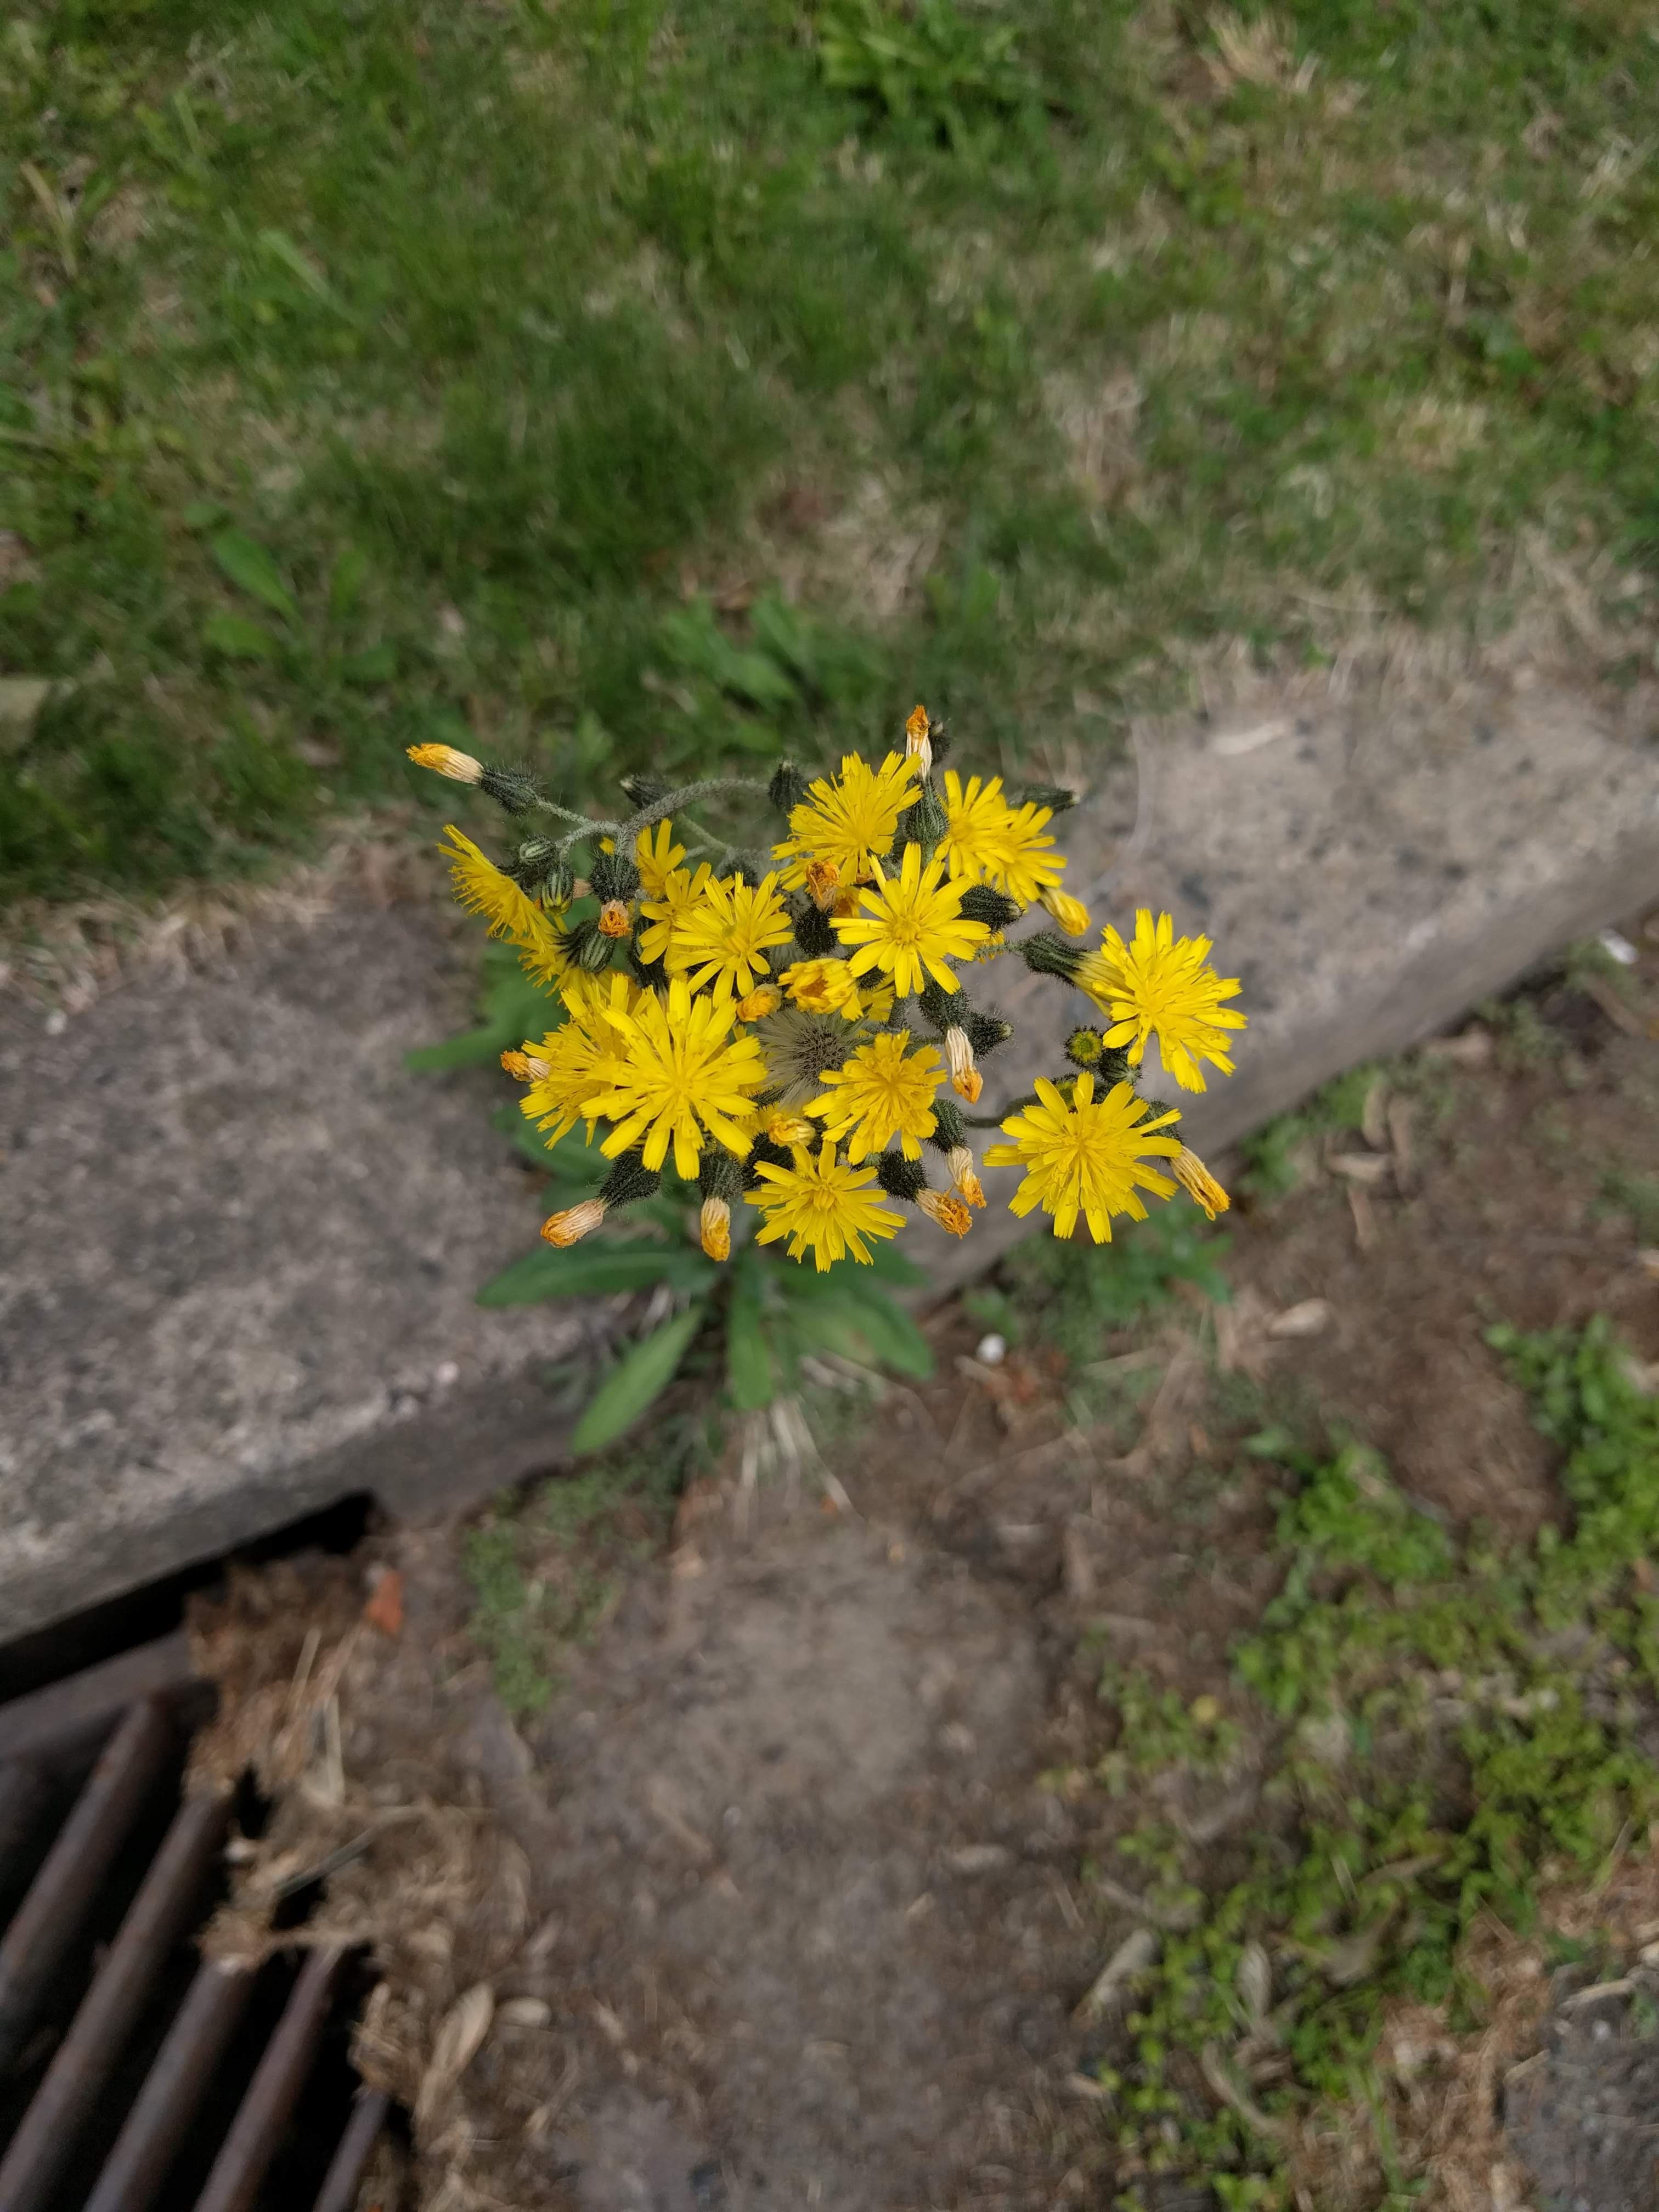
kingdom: Plantae
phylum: Tracheophyta
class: Magnoliopsida
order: Asterales
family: Asteraceae
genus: Pilosella
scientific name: Pilosella caespitosa
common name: Yellow fox-and-cubs
